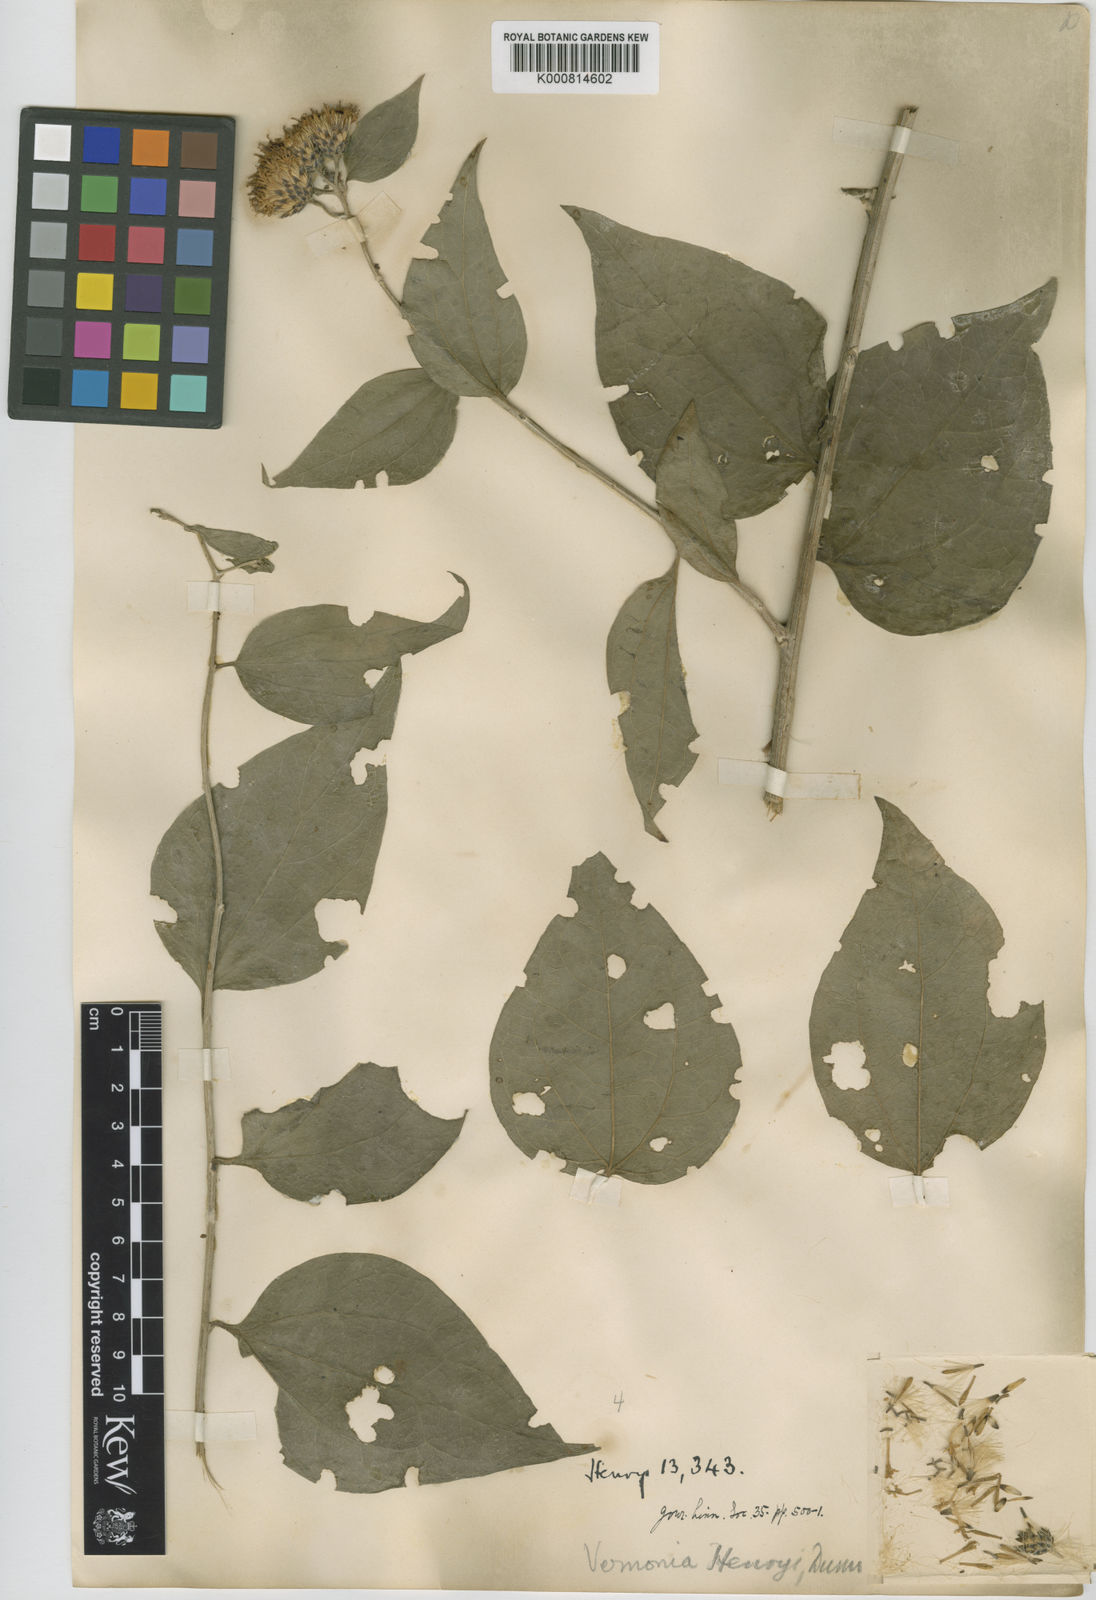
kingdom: Plantae
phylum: Tracheophyta
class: Magnoliopsida
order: Asterales
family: Asteraceae
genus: Distephanus
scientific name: Distephanus henryi
